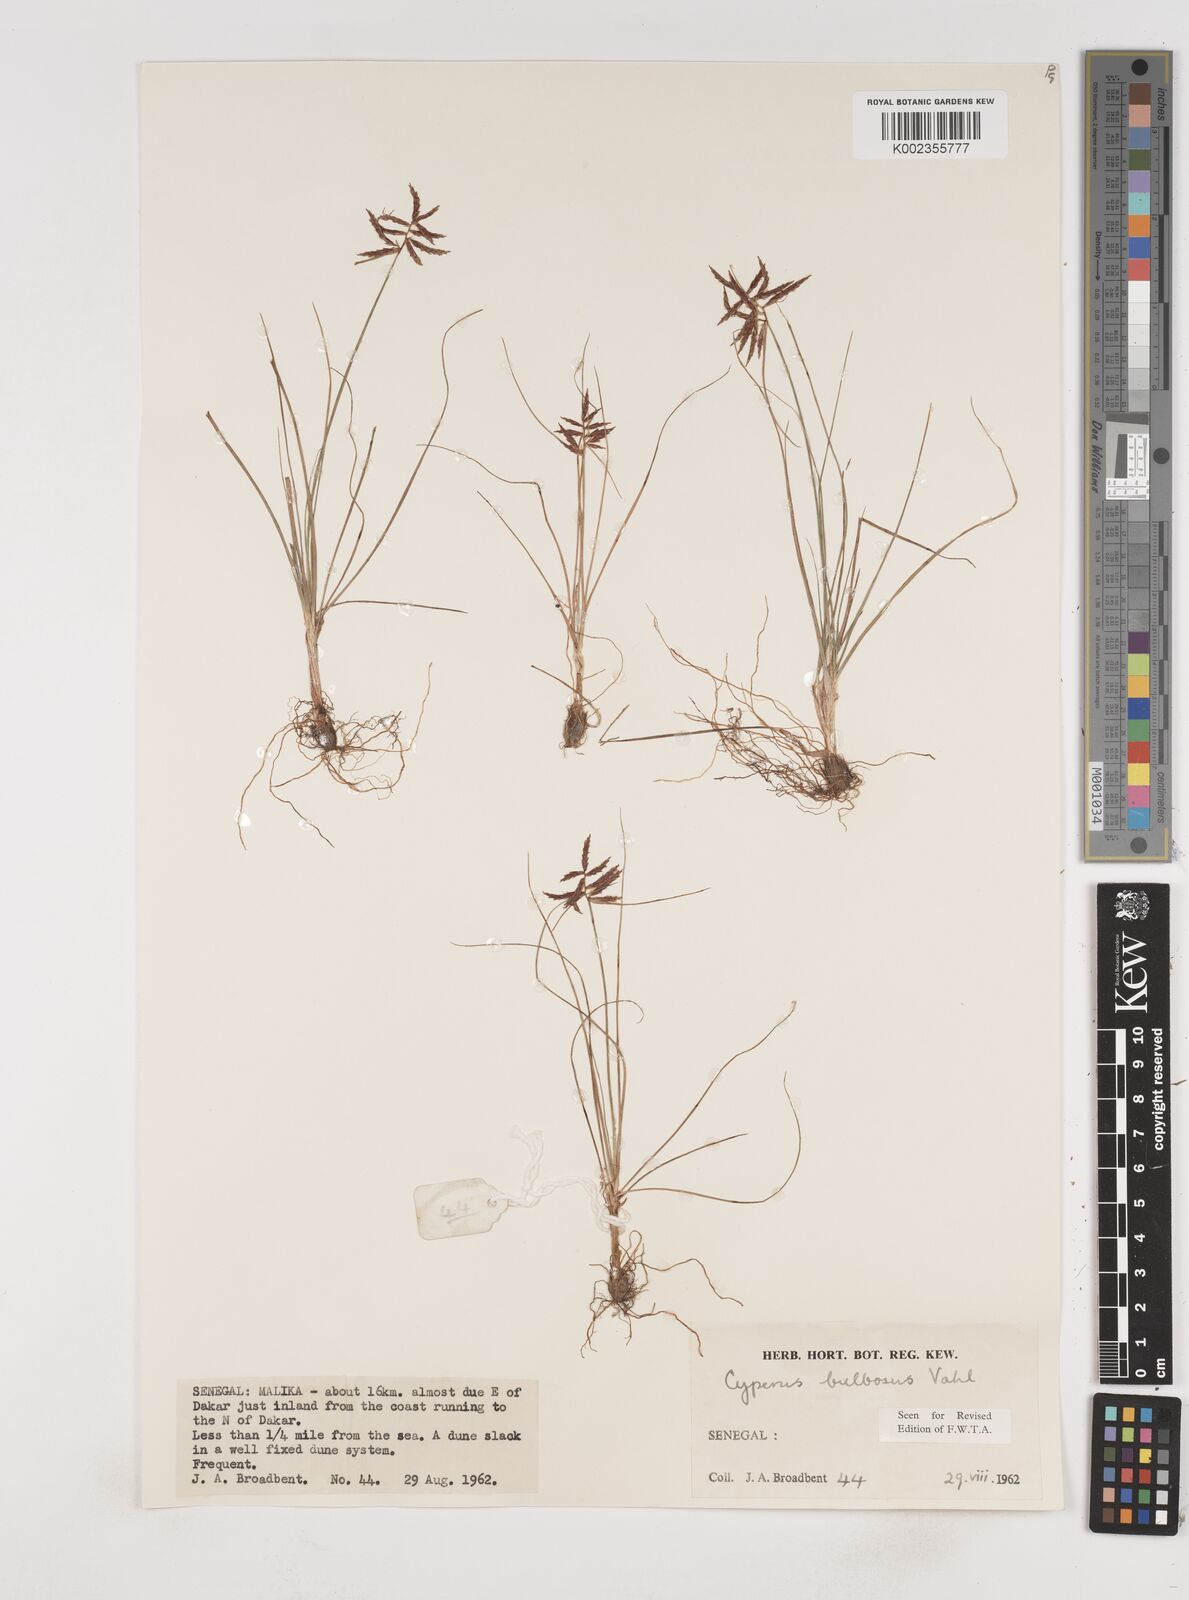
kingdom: Plantae
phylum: Tracheophyta
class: Liliopsida
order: Poales
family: Cyperaceae
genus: Cyperus
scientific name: Cyperus bulbosus
